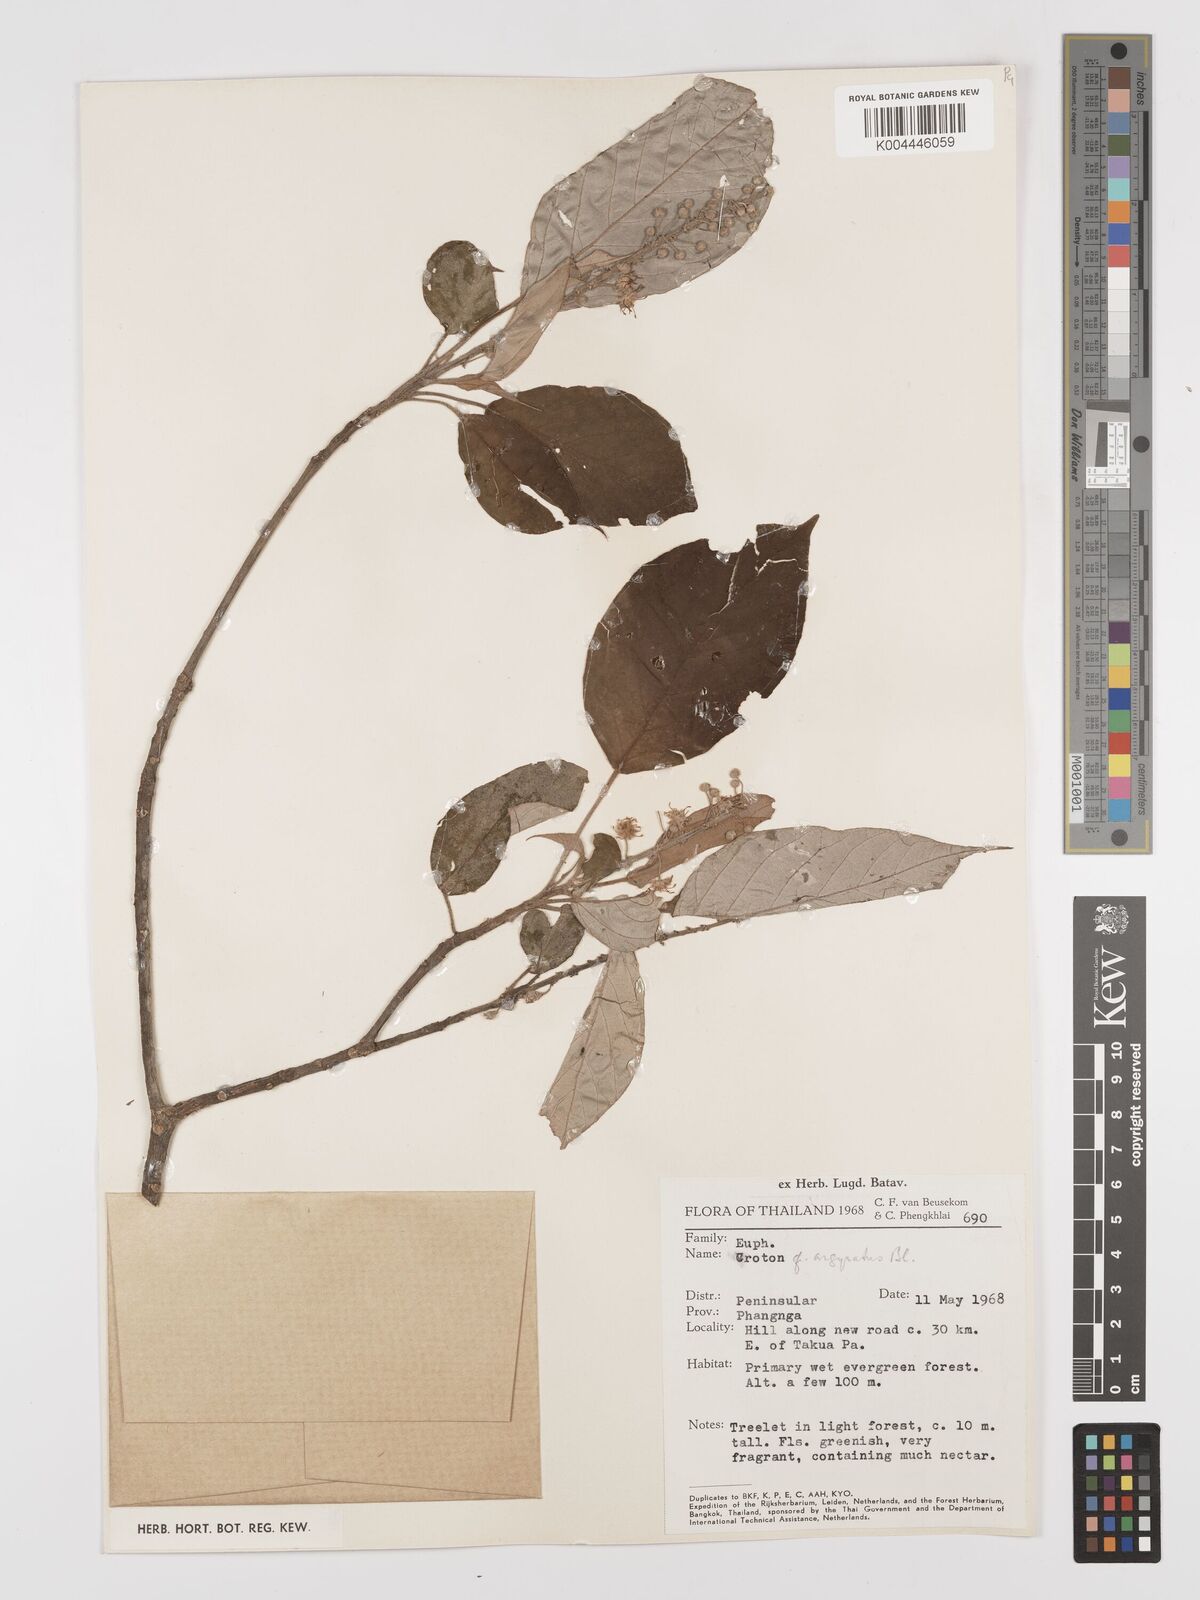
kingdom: Plantae
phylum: Tracheophyta
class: Magnoliopsida
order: Malpighiales
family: Euphorbiaceae
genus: Croton
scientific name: Croton argyratus
